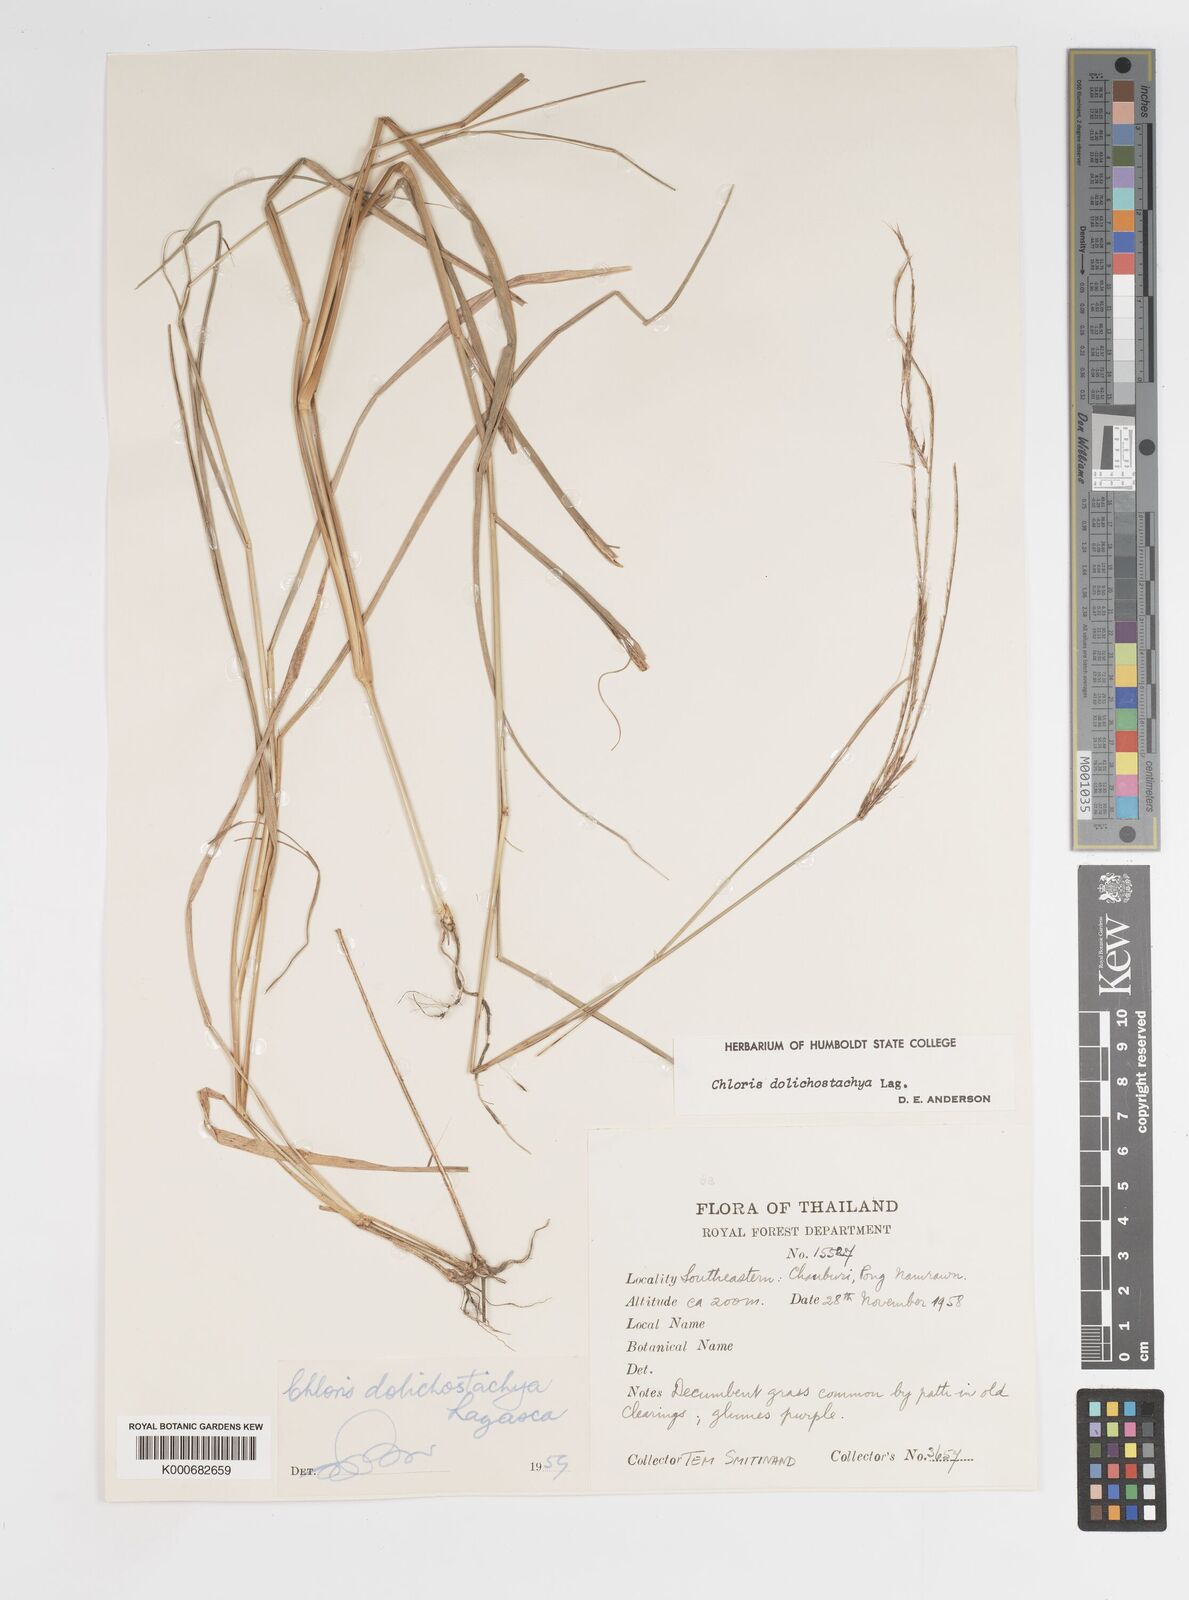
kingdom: Plantae
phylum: Tracheophyta
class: Liliopsida
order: Poales
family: Poaceae
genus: Enteropogon
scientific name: Enteropogon
